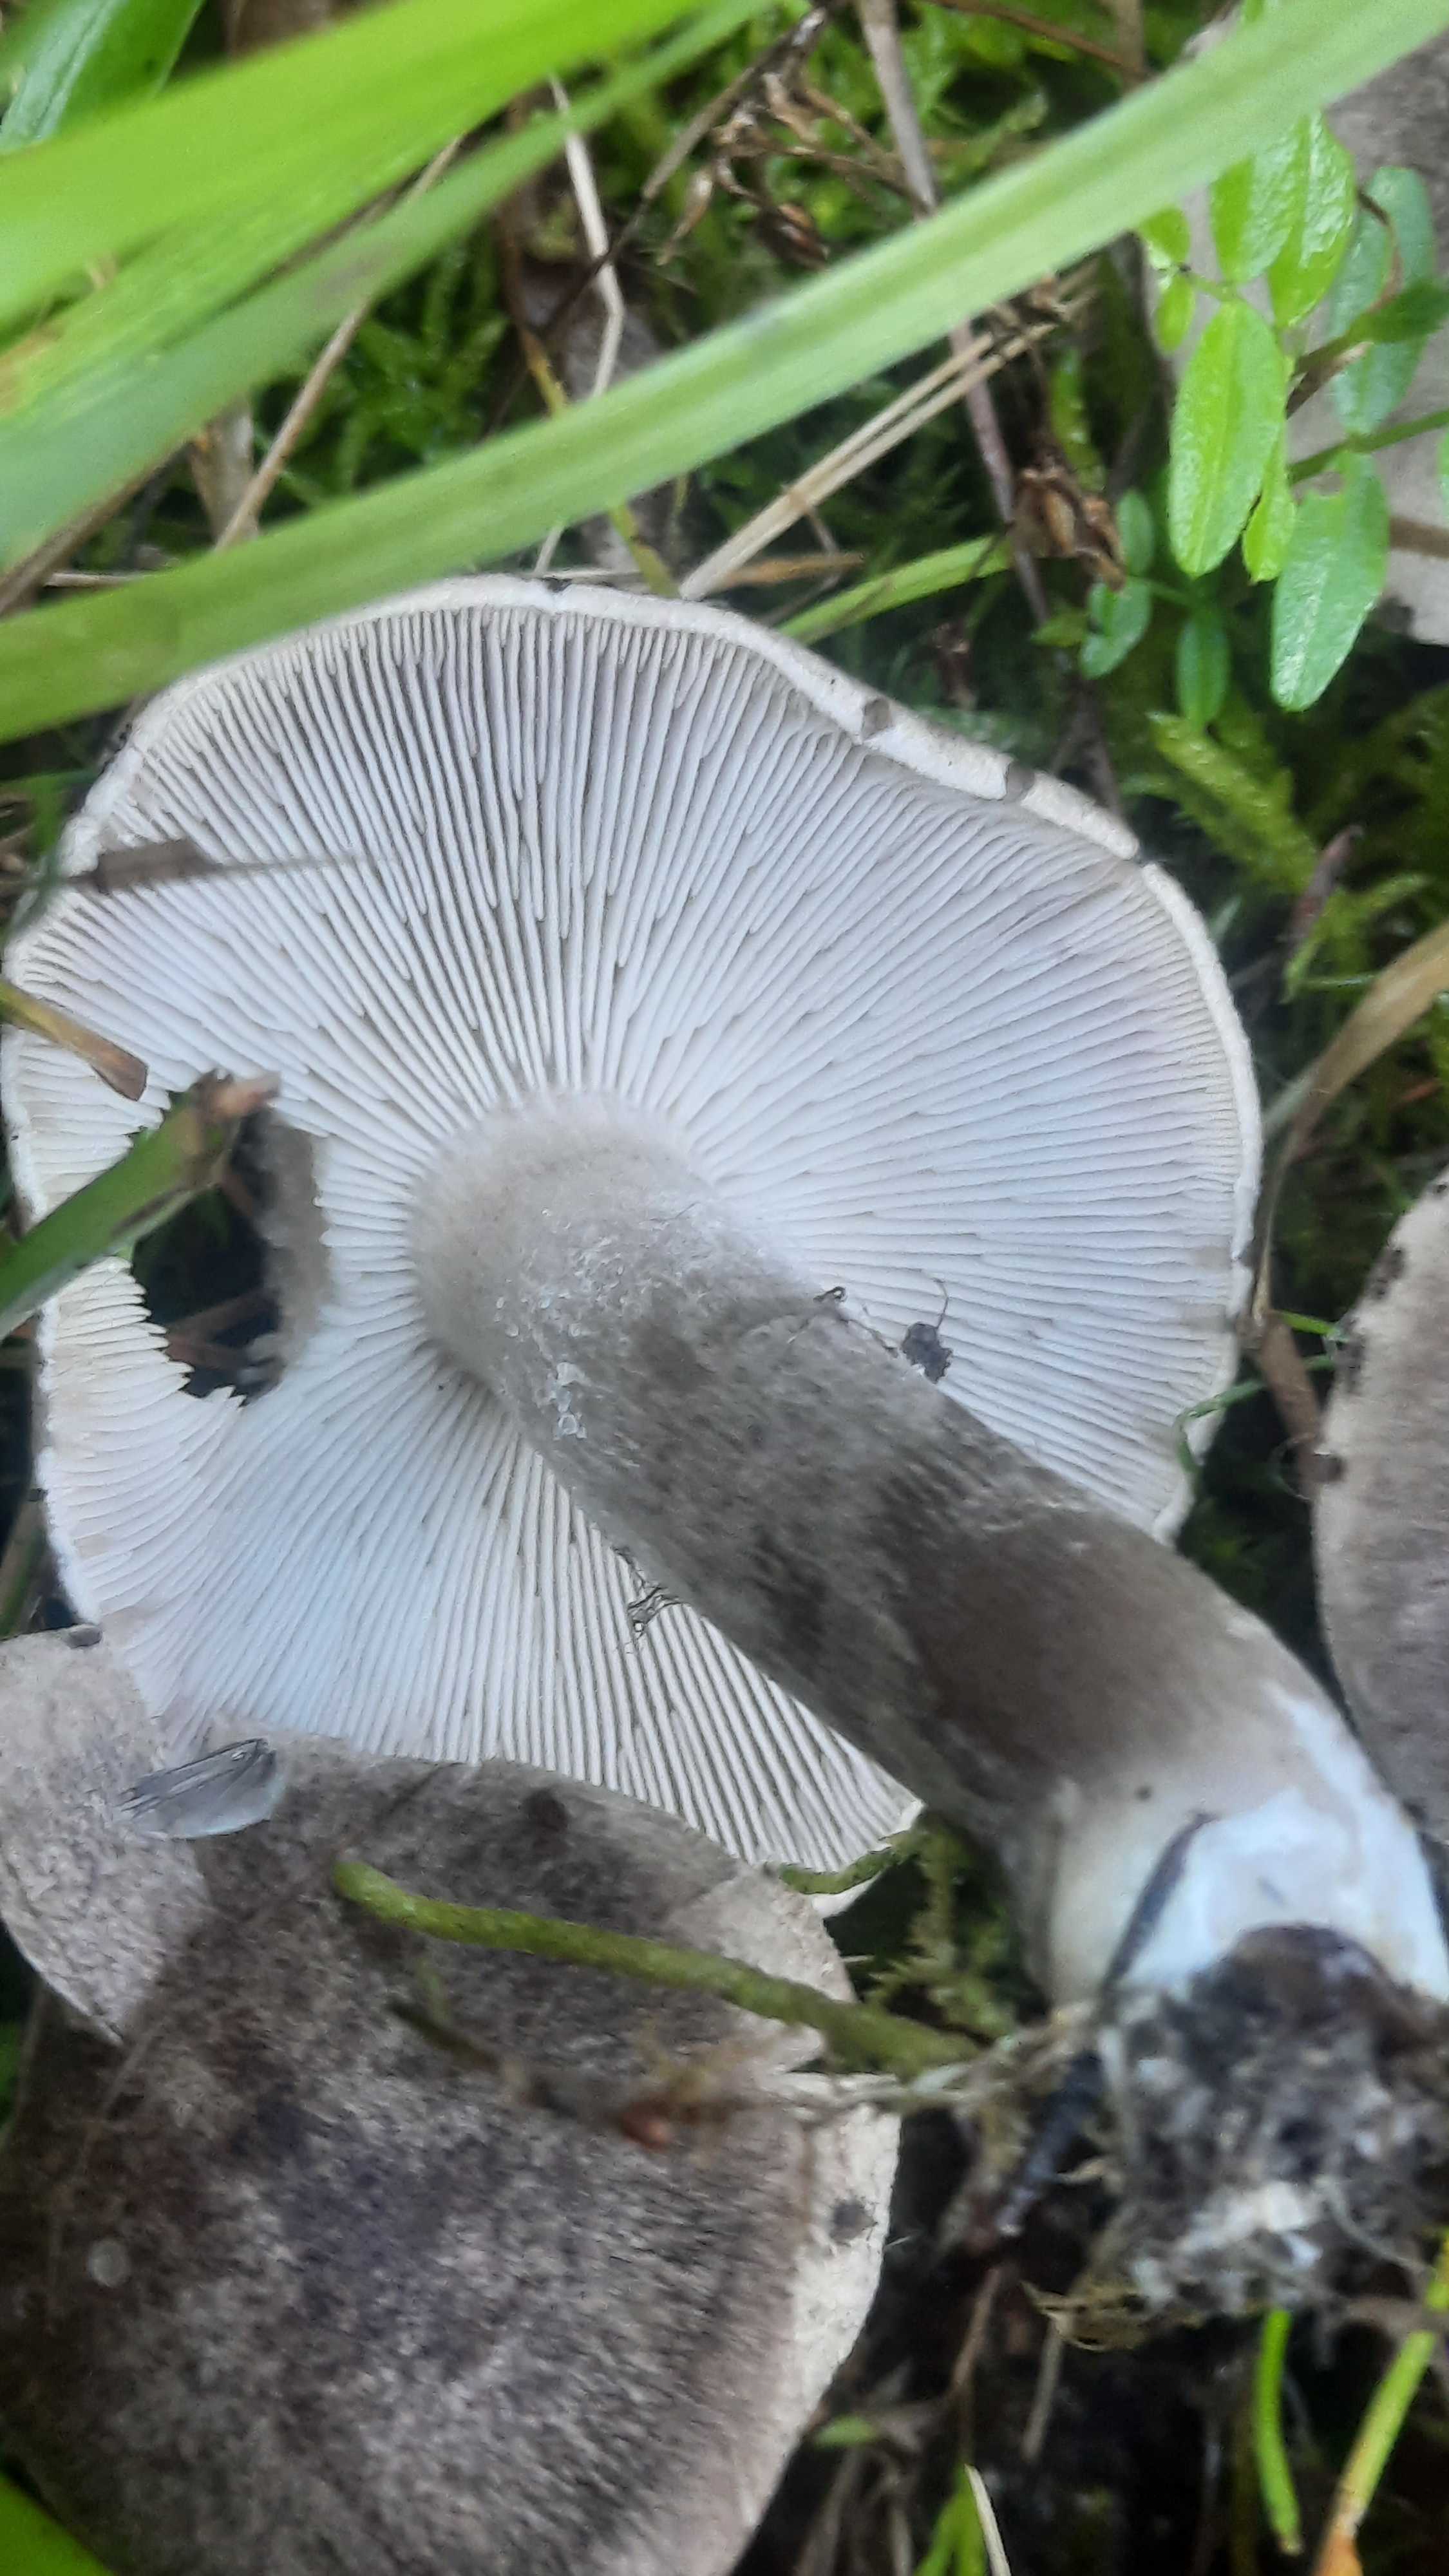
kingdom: Fungi
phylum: Basidiomycota
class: Agaricomycetes
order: Agaricales
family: Tricholomataceae
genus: Tricholoma
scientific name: Tricholoma
